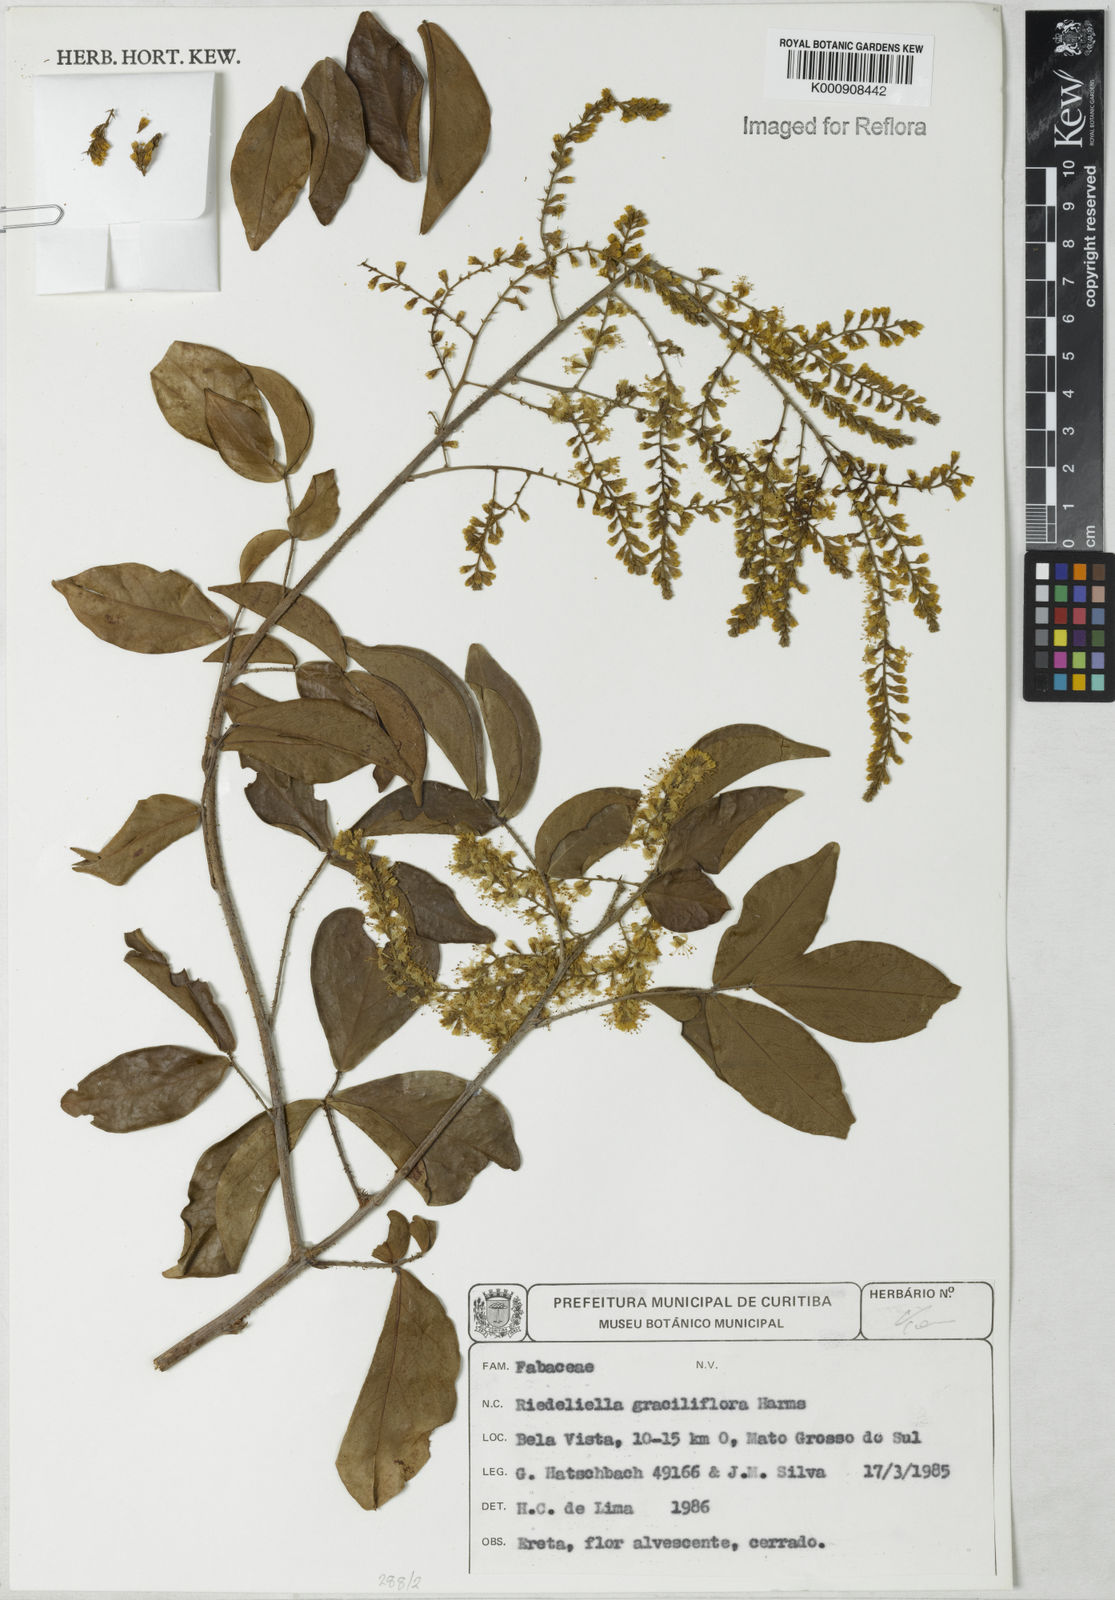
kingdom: Plantae
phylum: Tracheophyta
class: Magnoliopsida
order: Fabales
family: Fabaceae
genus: Riedeliella
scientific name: Riedeliella graciliflora
